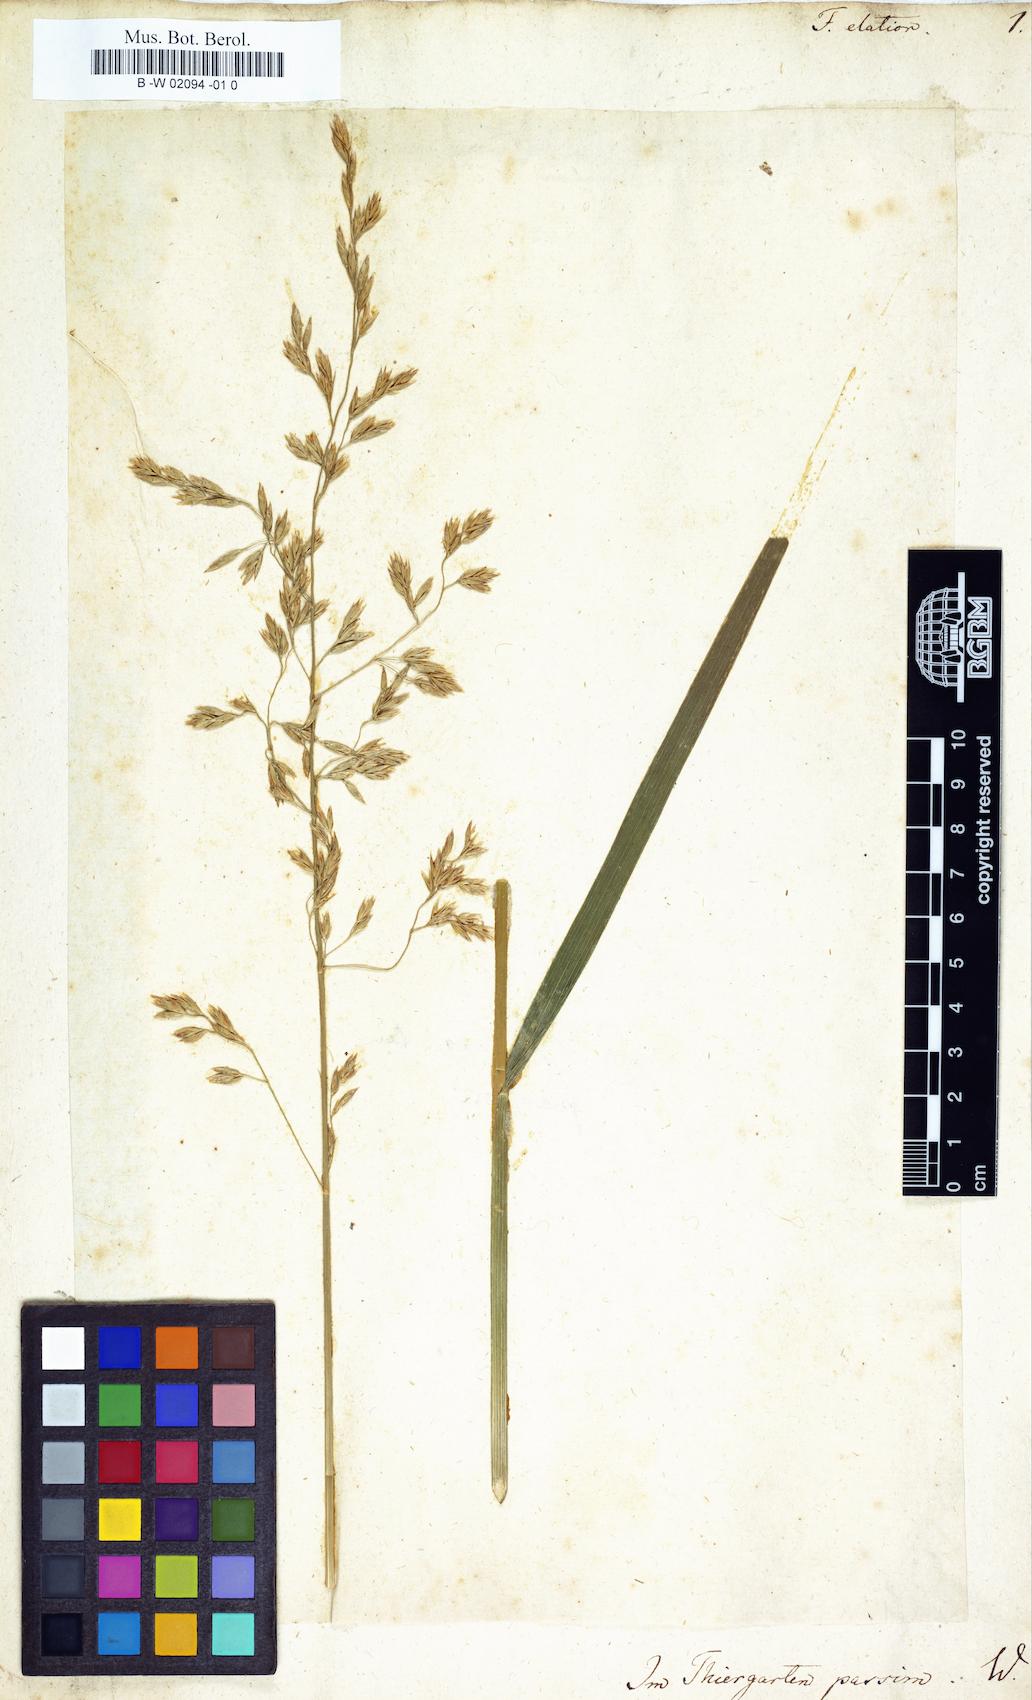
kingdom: Plantae
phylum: Tracheophyta
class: Liliopsida
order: Poales
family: Poaceae
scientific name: Poaceae
